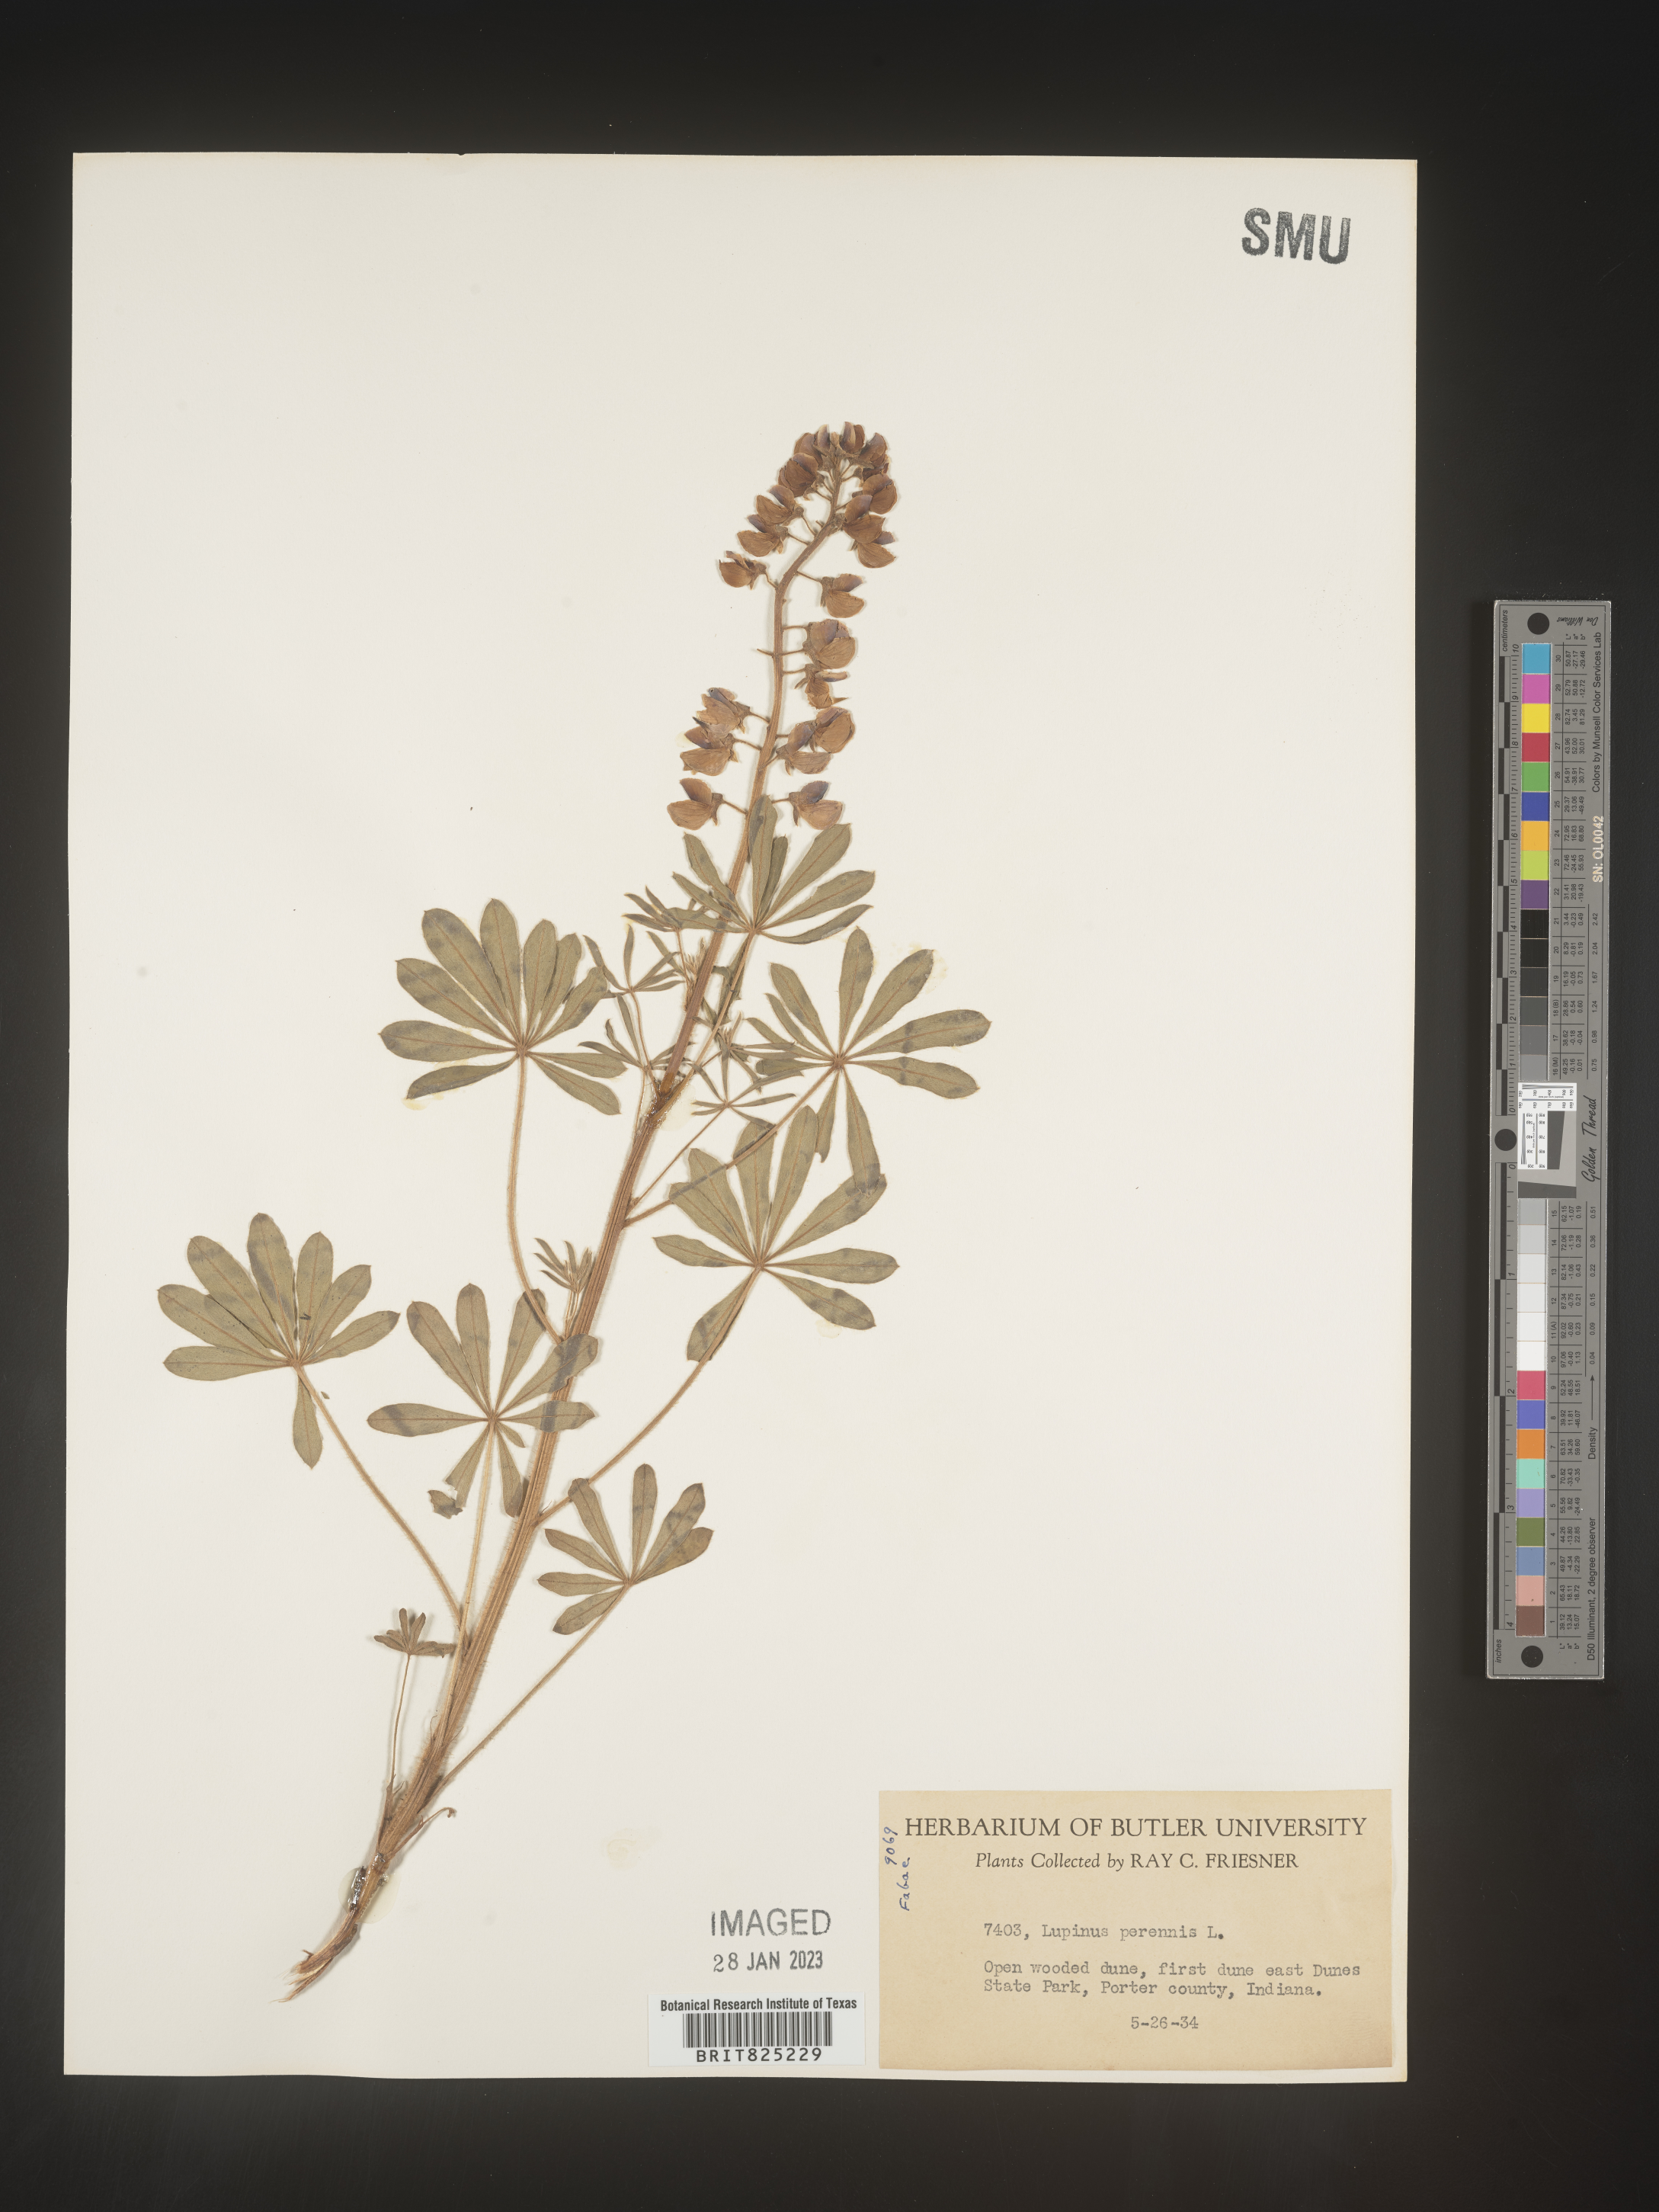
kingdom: Plantae
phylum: Tracheophyta
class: Magnoliopsida
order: Fabales
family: Fabaceae
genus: Lupinus
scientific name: Lupinus perennis
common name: Sundial lupine
